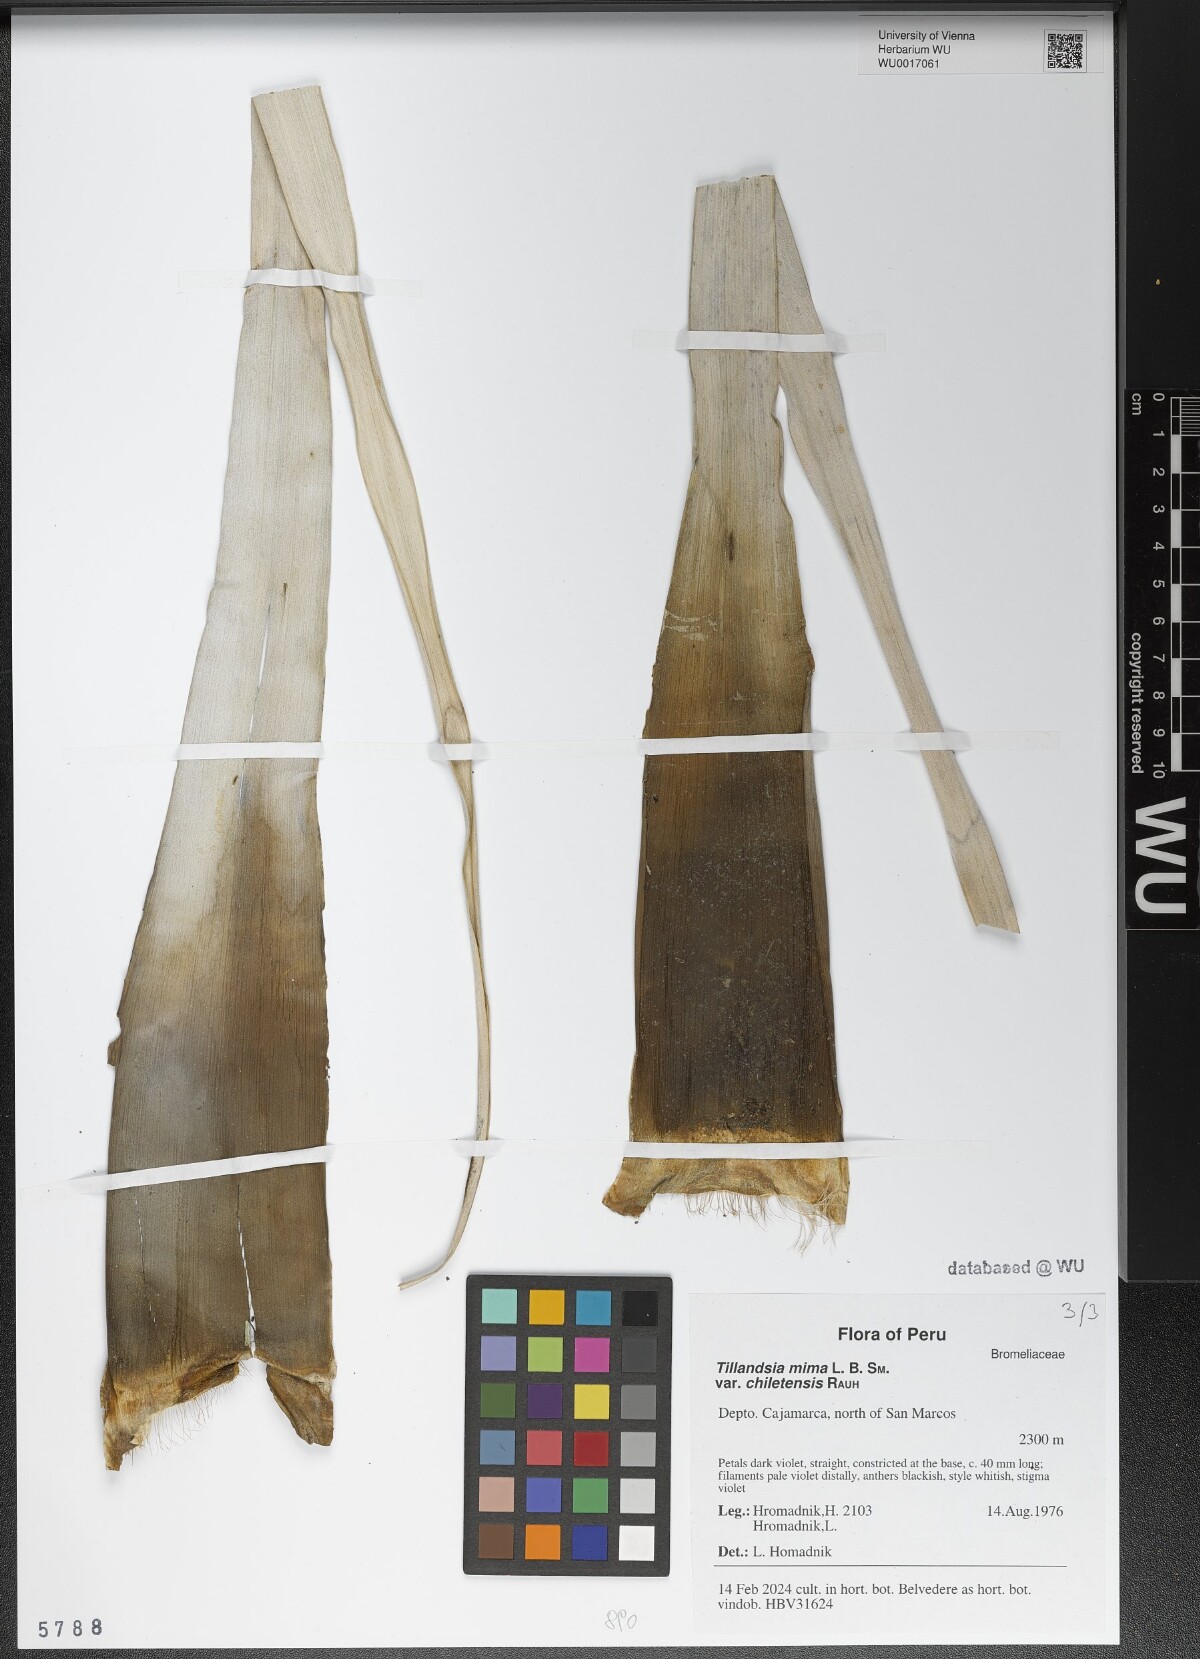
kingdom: Plantae
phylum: Tracheophyta
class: Liliopsida
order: Poales
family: Bromeliaceae
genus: Tillandsia
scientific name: Tillandsia mima
